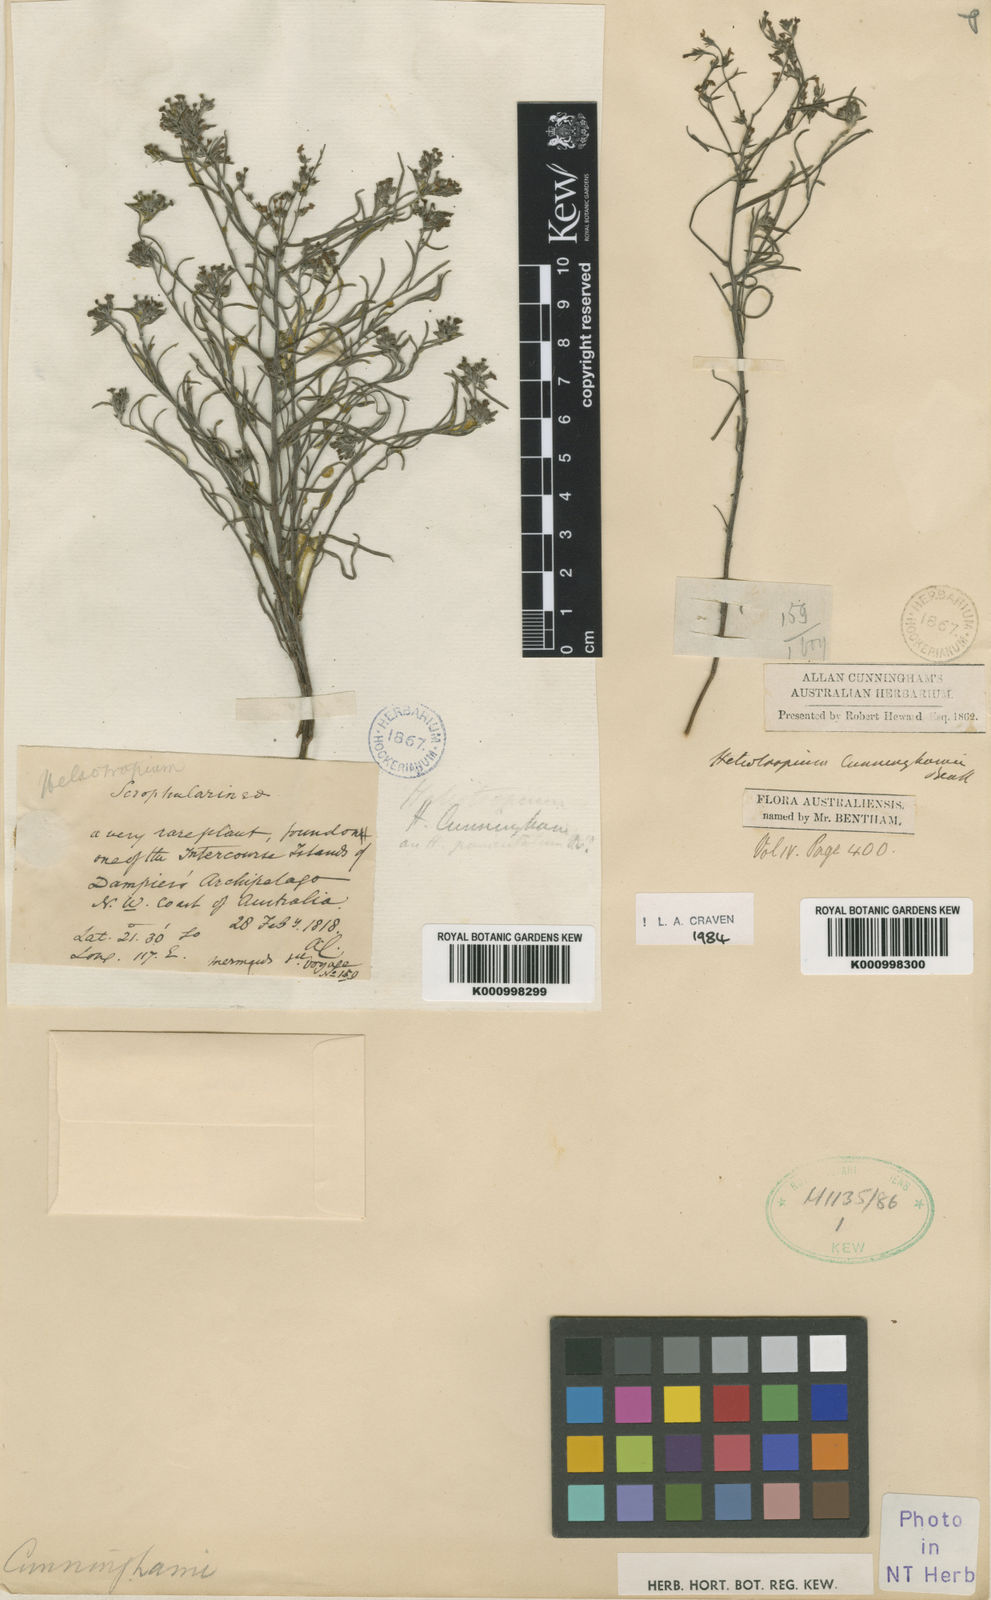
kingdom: Plantae
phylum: Tracheophyta
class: Magnoliopsida
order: Boraginales
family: Heliotropiaceae
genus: Euploca
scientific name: Euploca cunninghamii
